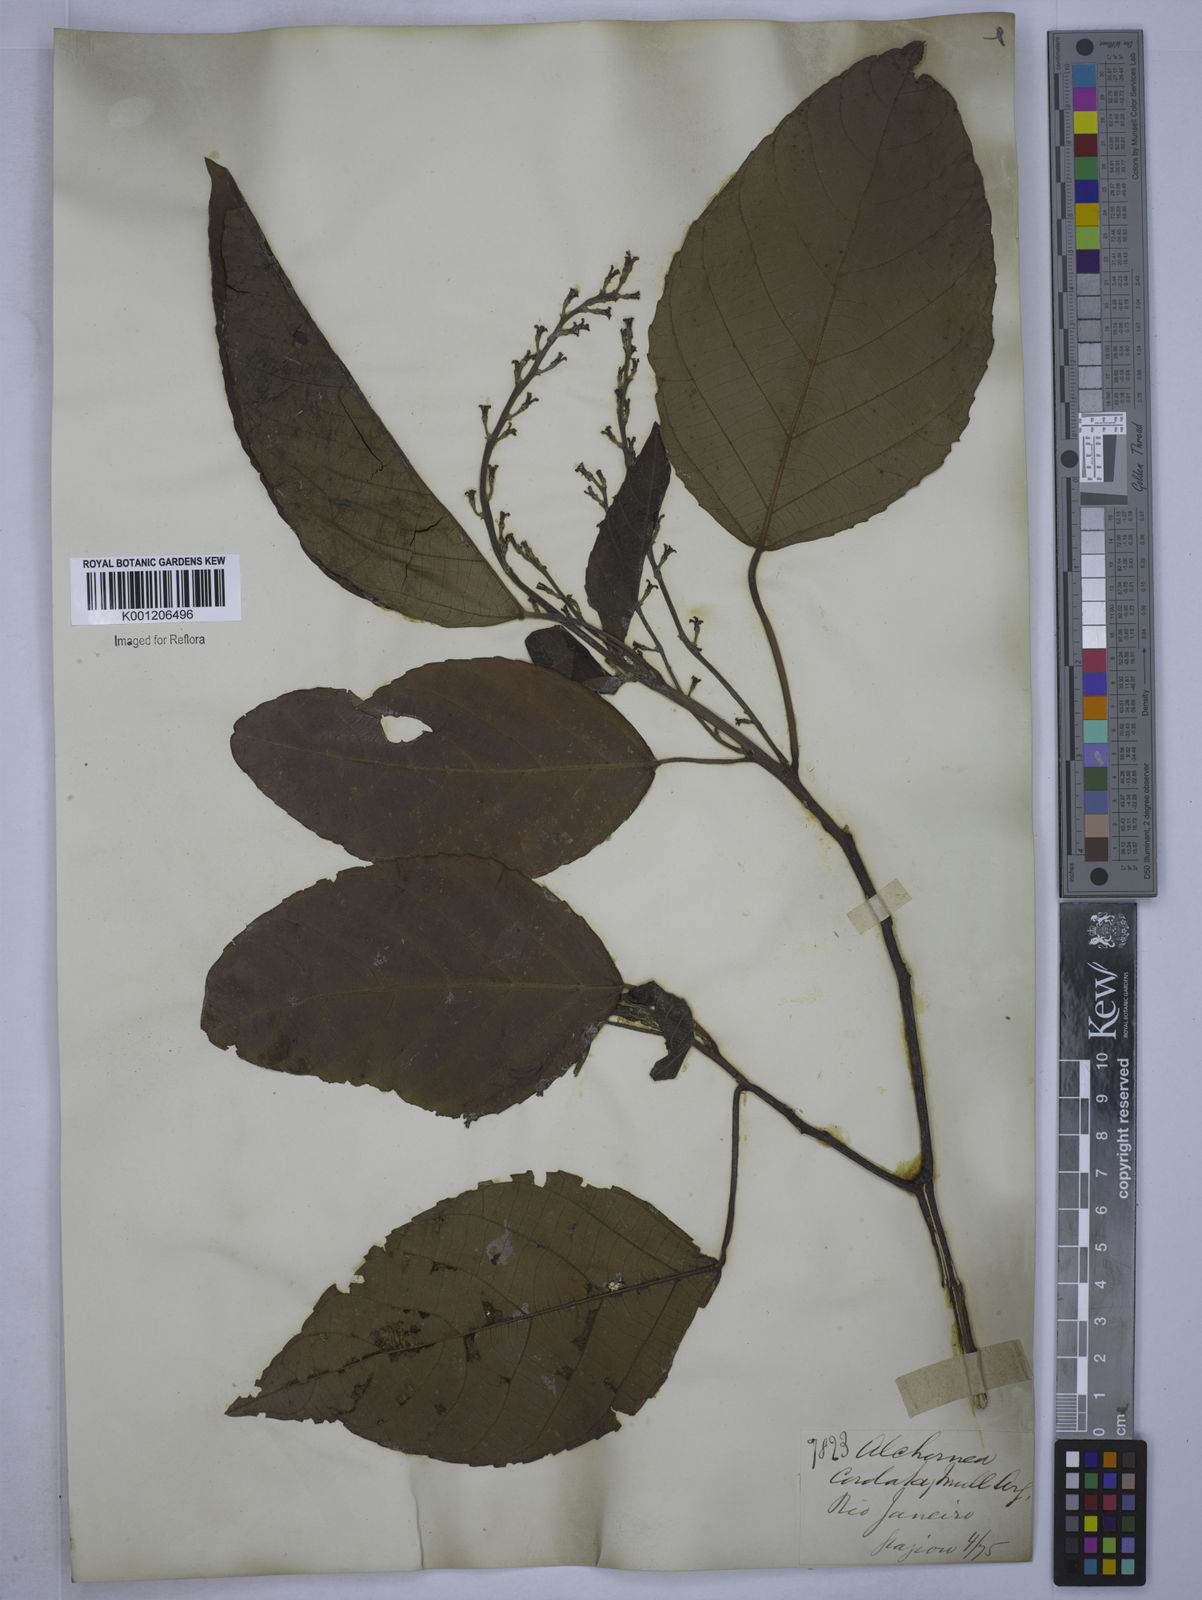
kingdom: Plantae
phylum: Tracheophyta
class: Magnoliopsida
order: Malpighiales
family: Euphorbiaceae
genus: Aparisthmium
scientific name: Aparisthmium cordatum
